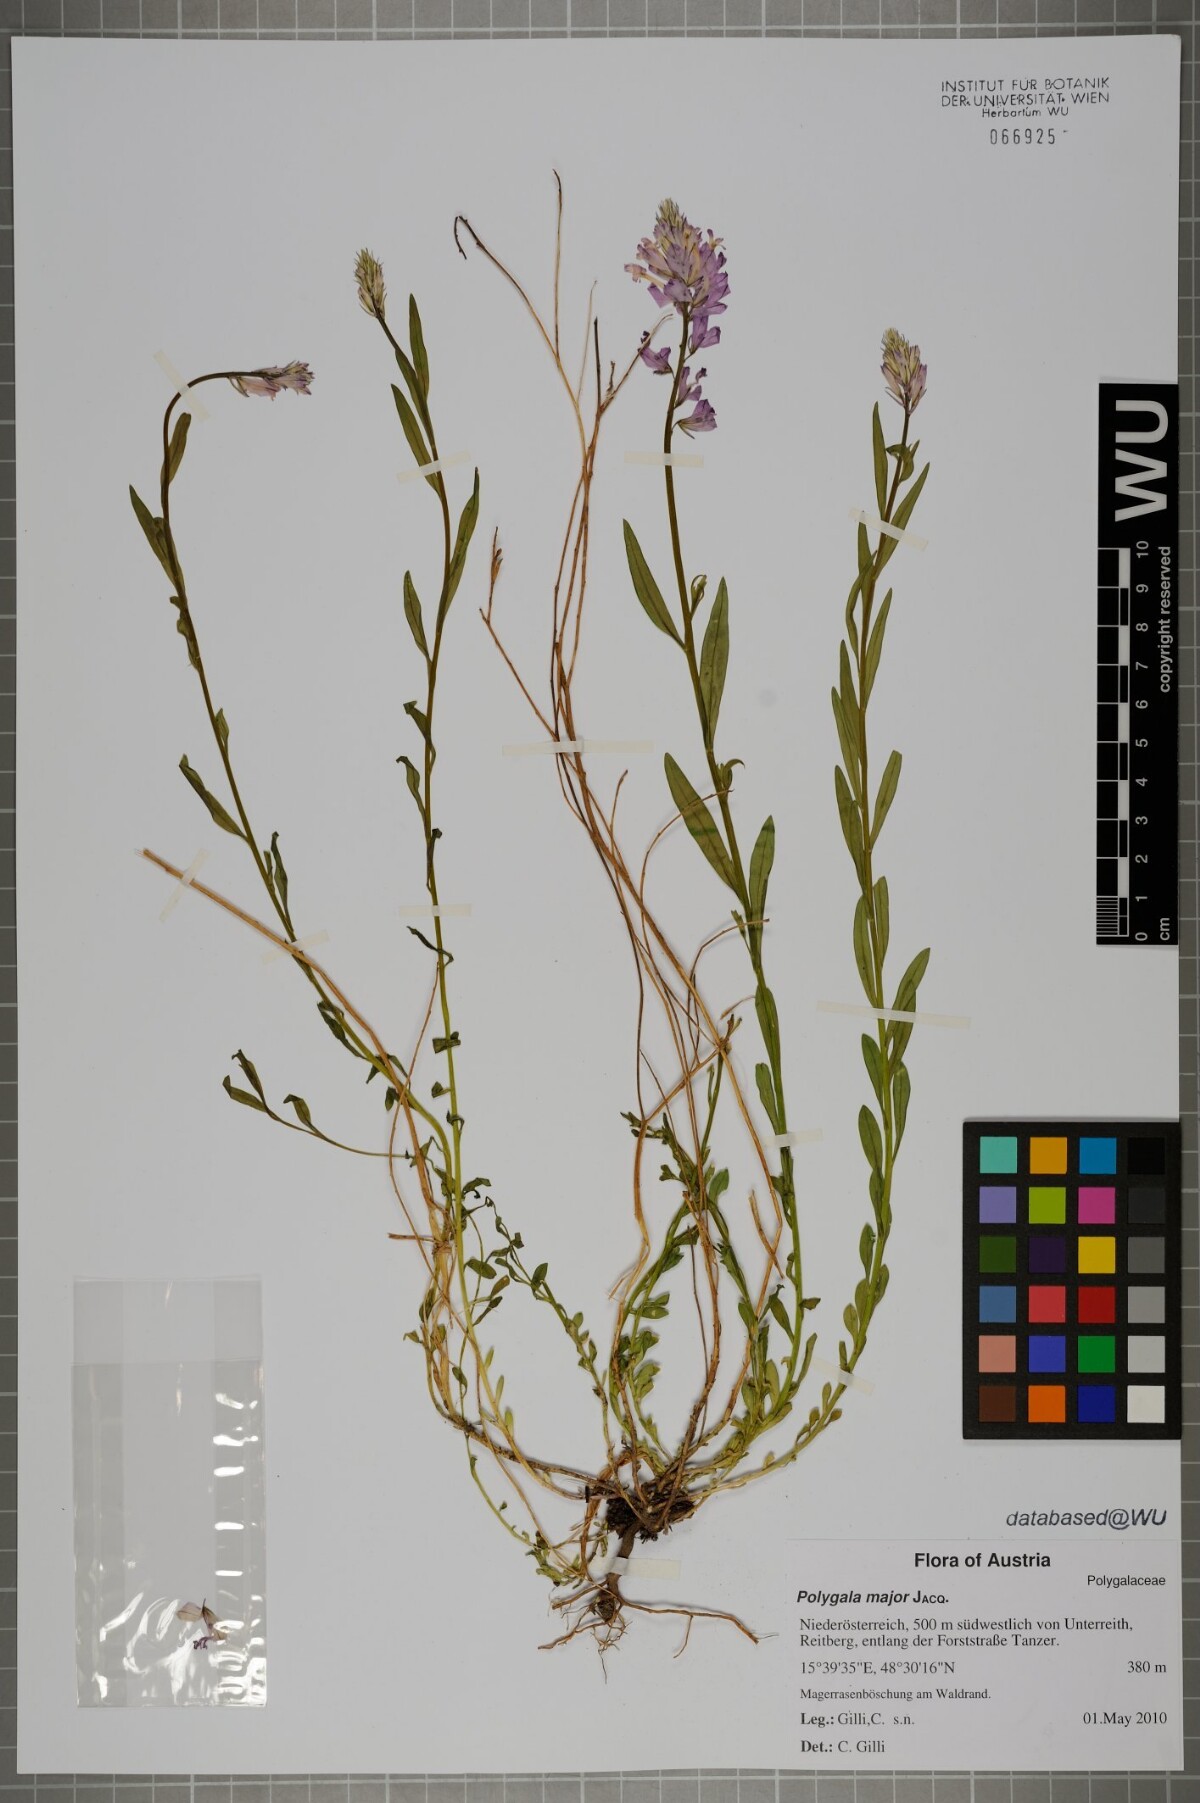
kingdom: Plantae
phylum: Tracheophyta
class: Magnoliopsida
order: Fabales
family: Polygalaceae
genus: Polygala
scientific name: Polygala major
